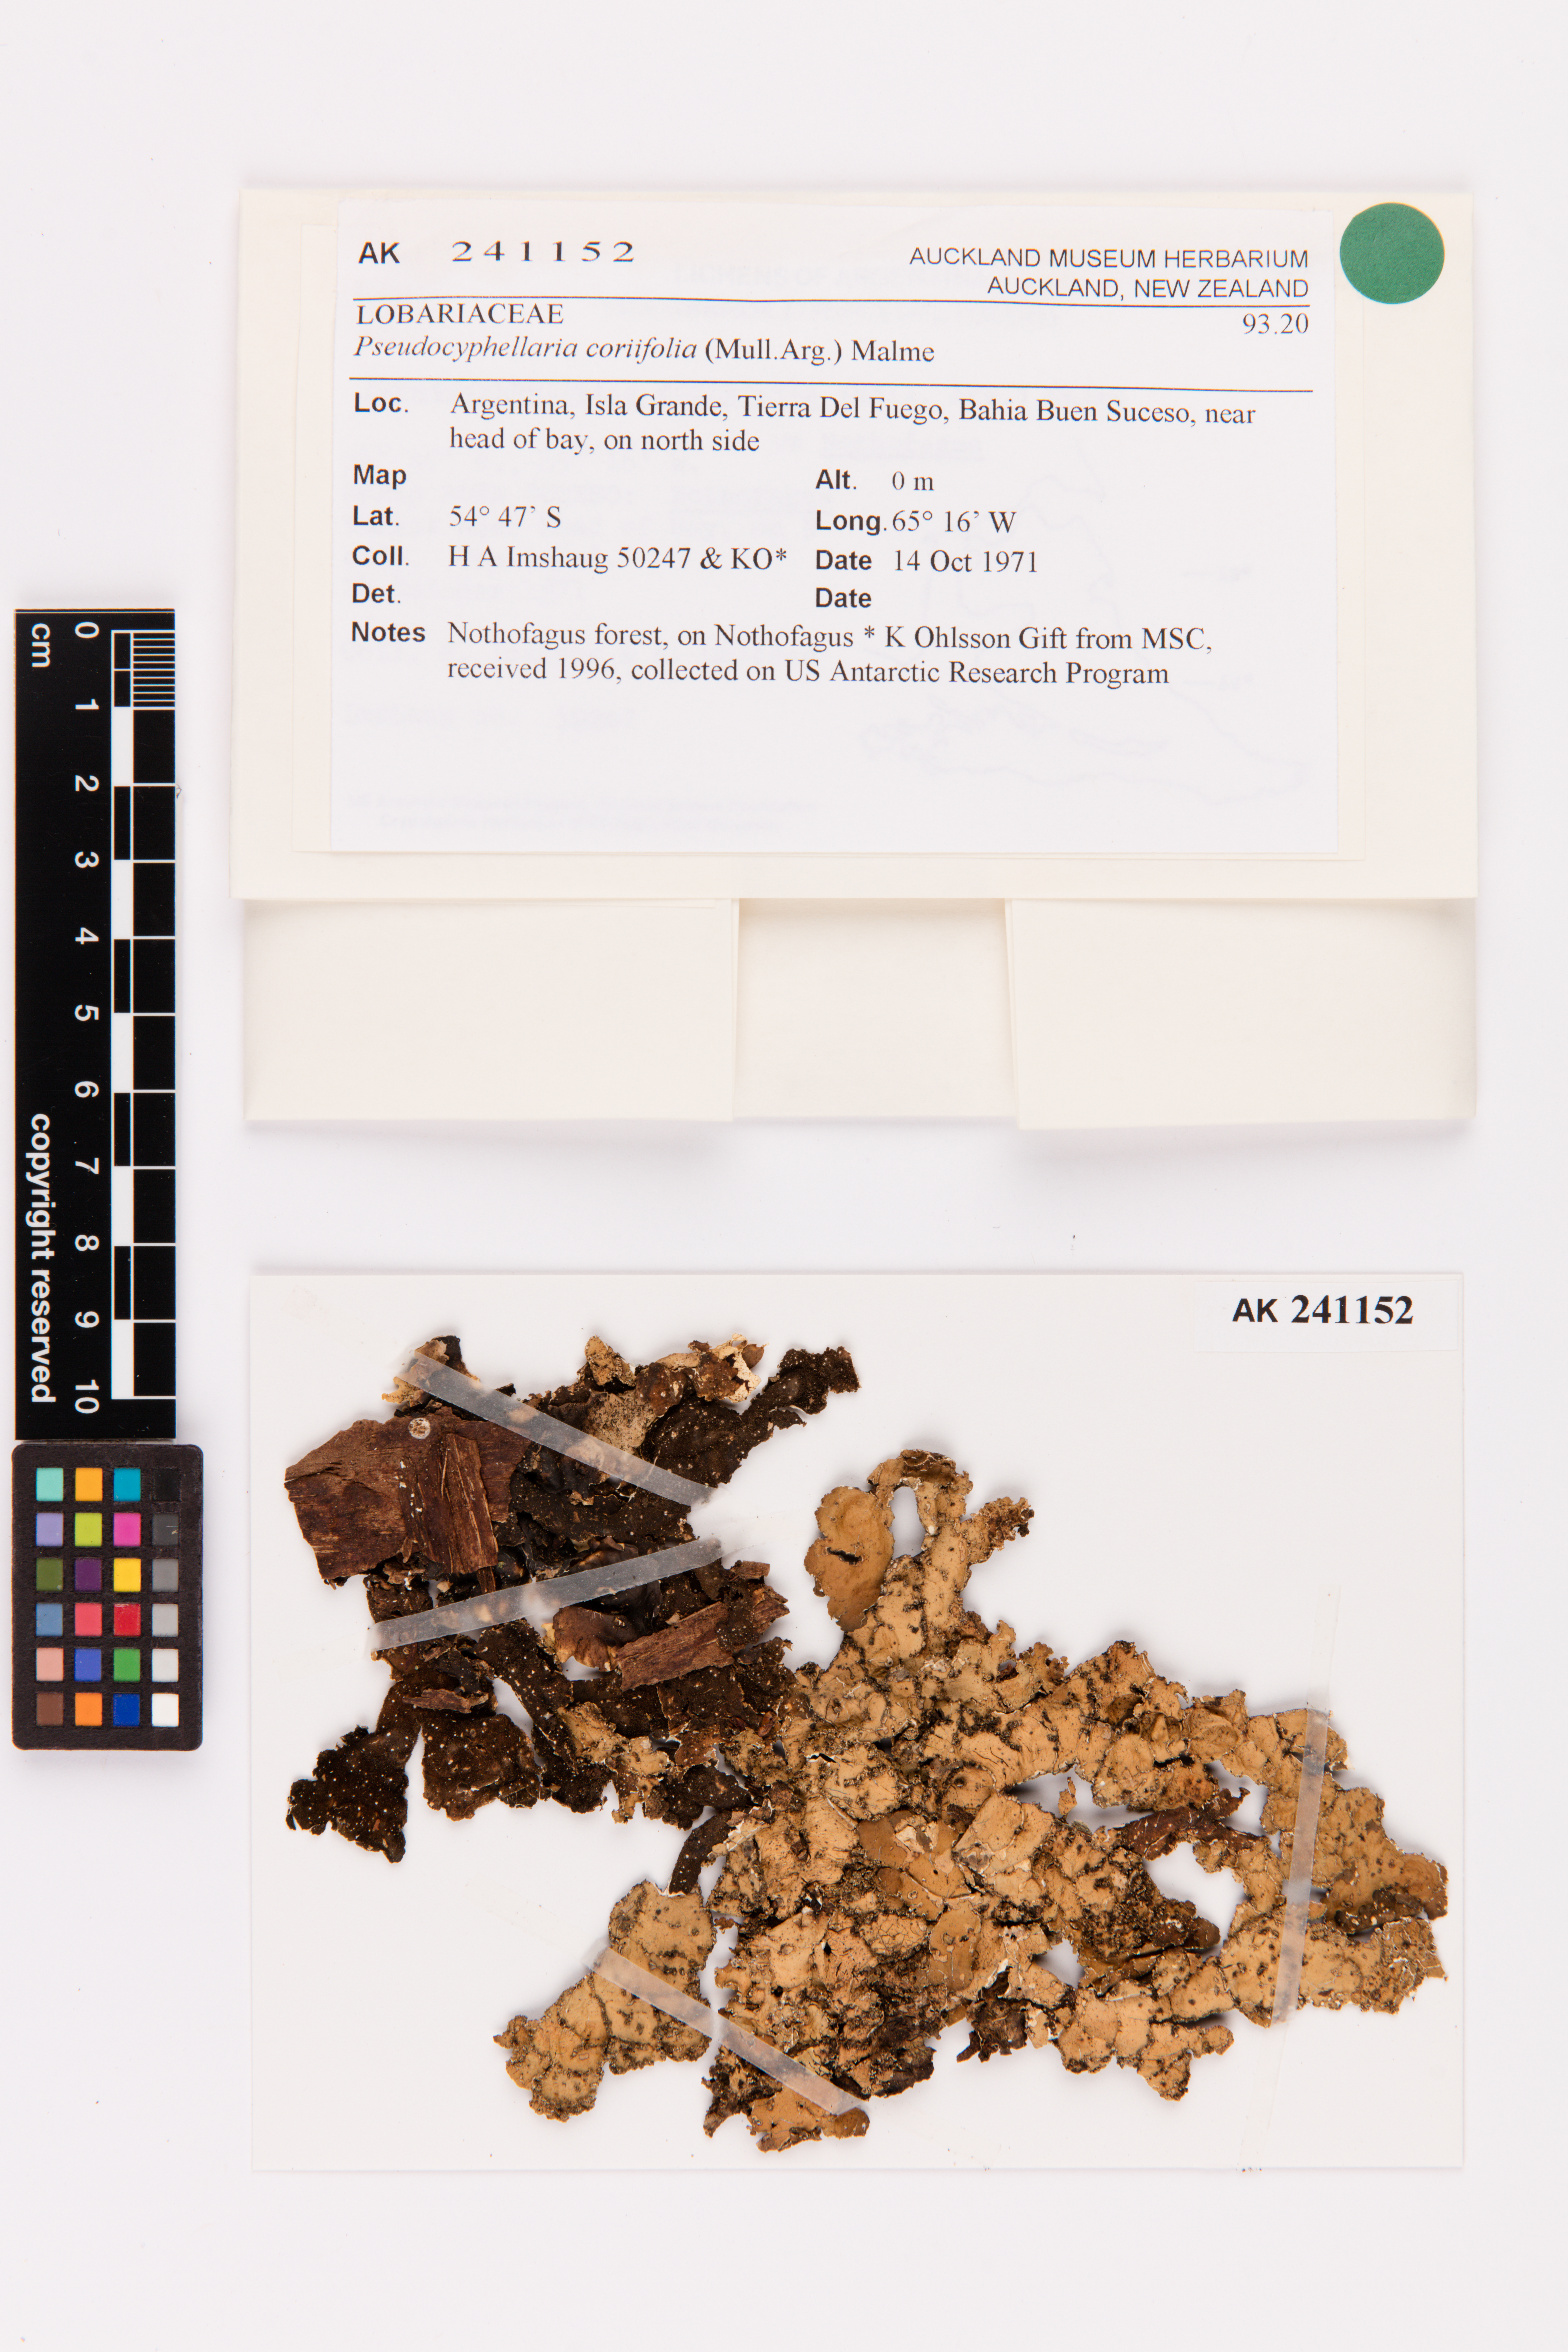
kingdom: Fungi
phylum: Ascomycota
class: Lecanoromycetes
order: Peltigerales
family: Lobariaceae
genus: Pseudocyphellaria
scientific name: Pseudocyphellaria coriifolia
